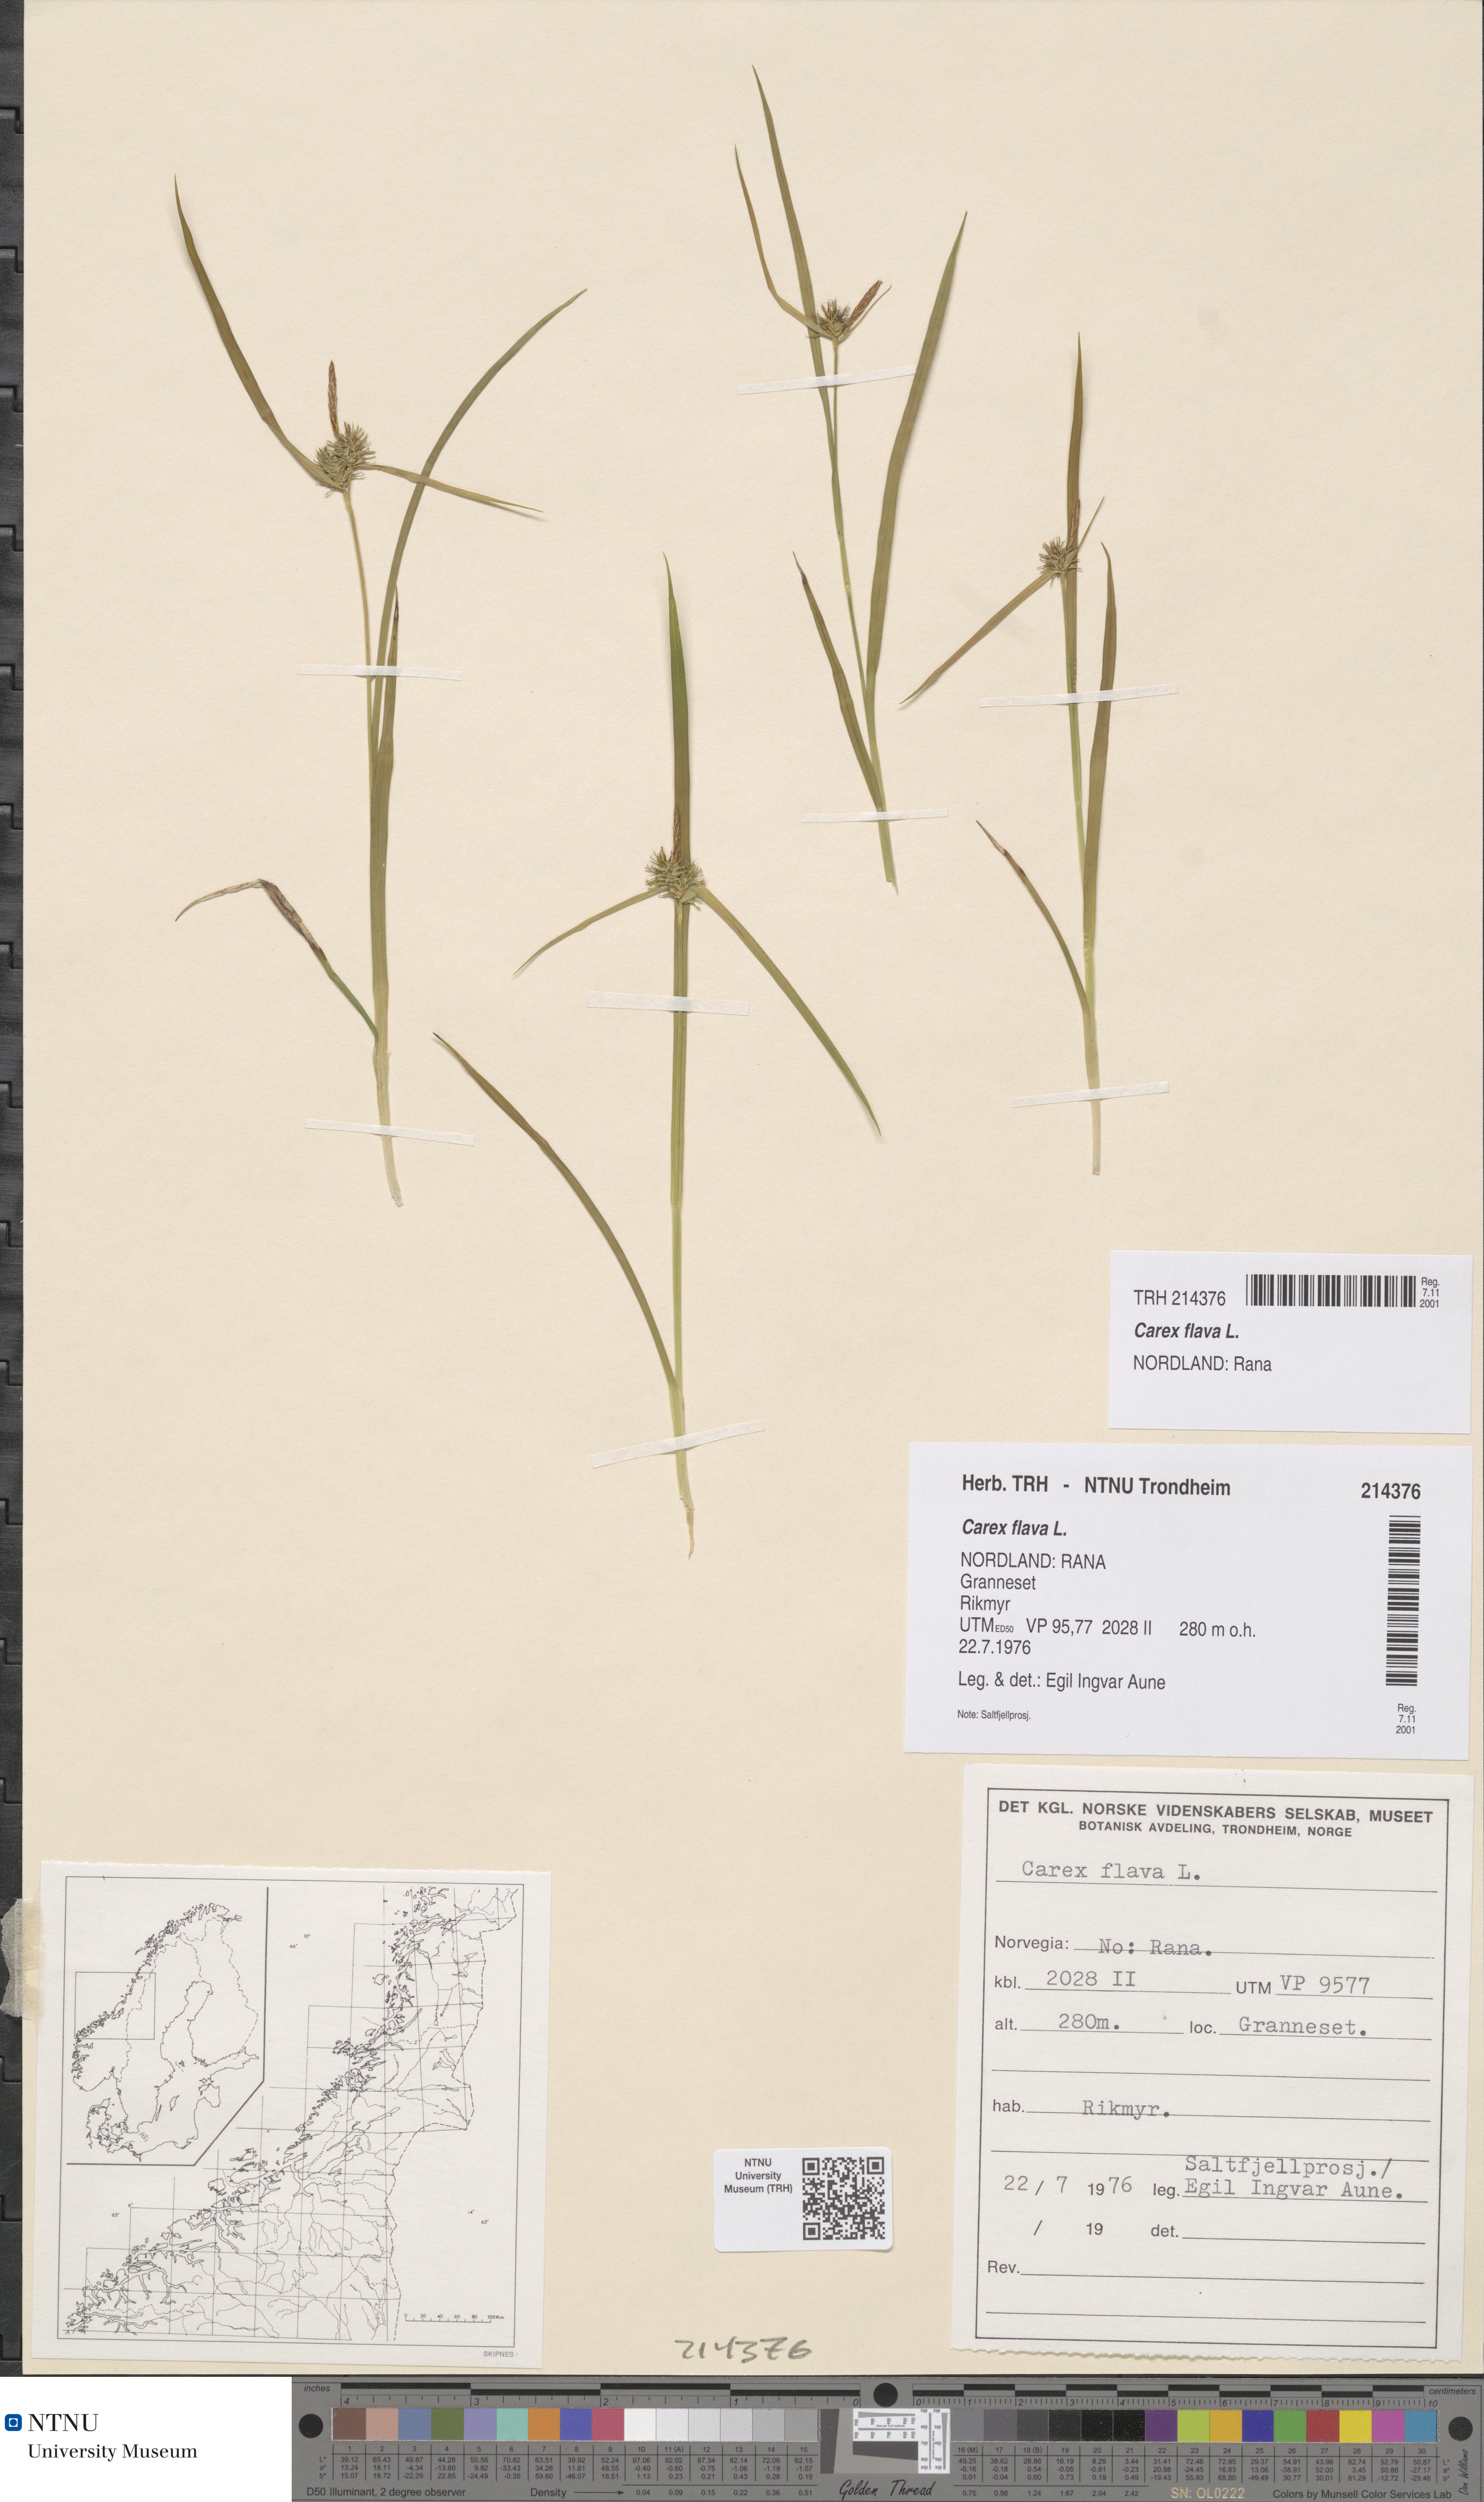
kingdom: Plantae
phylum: Tracheophyta
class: Liliopsida
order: Poales
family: Cyperaceae
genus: Carex
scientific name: Carex flava
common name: Large yellow-sedge
